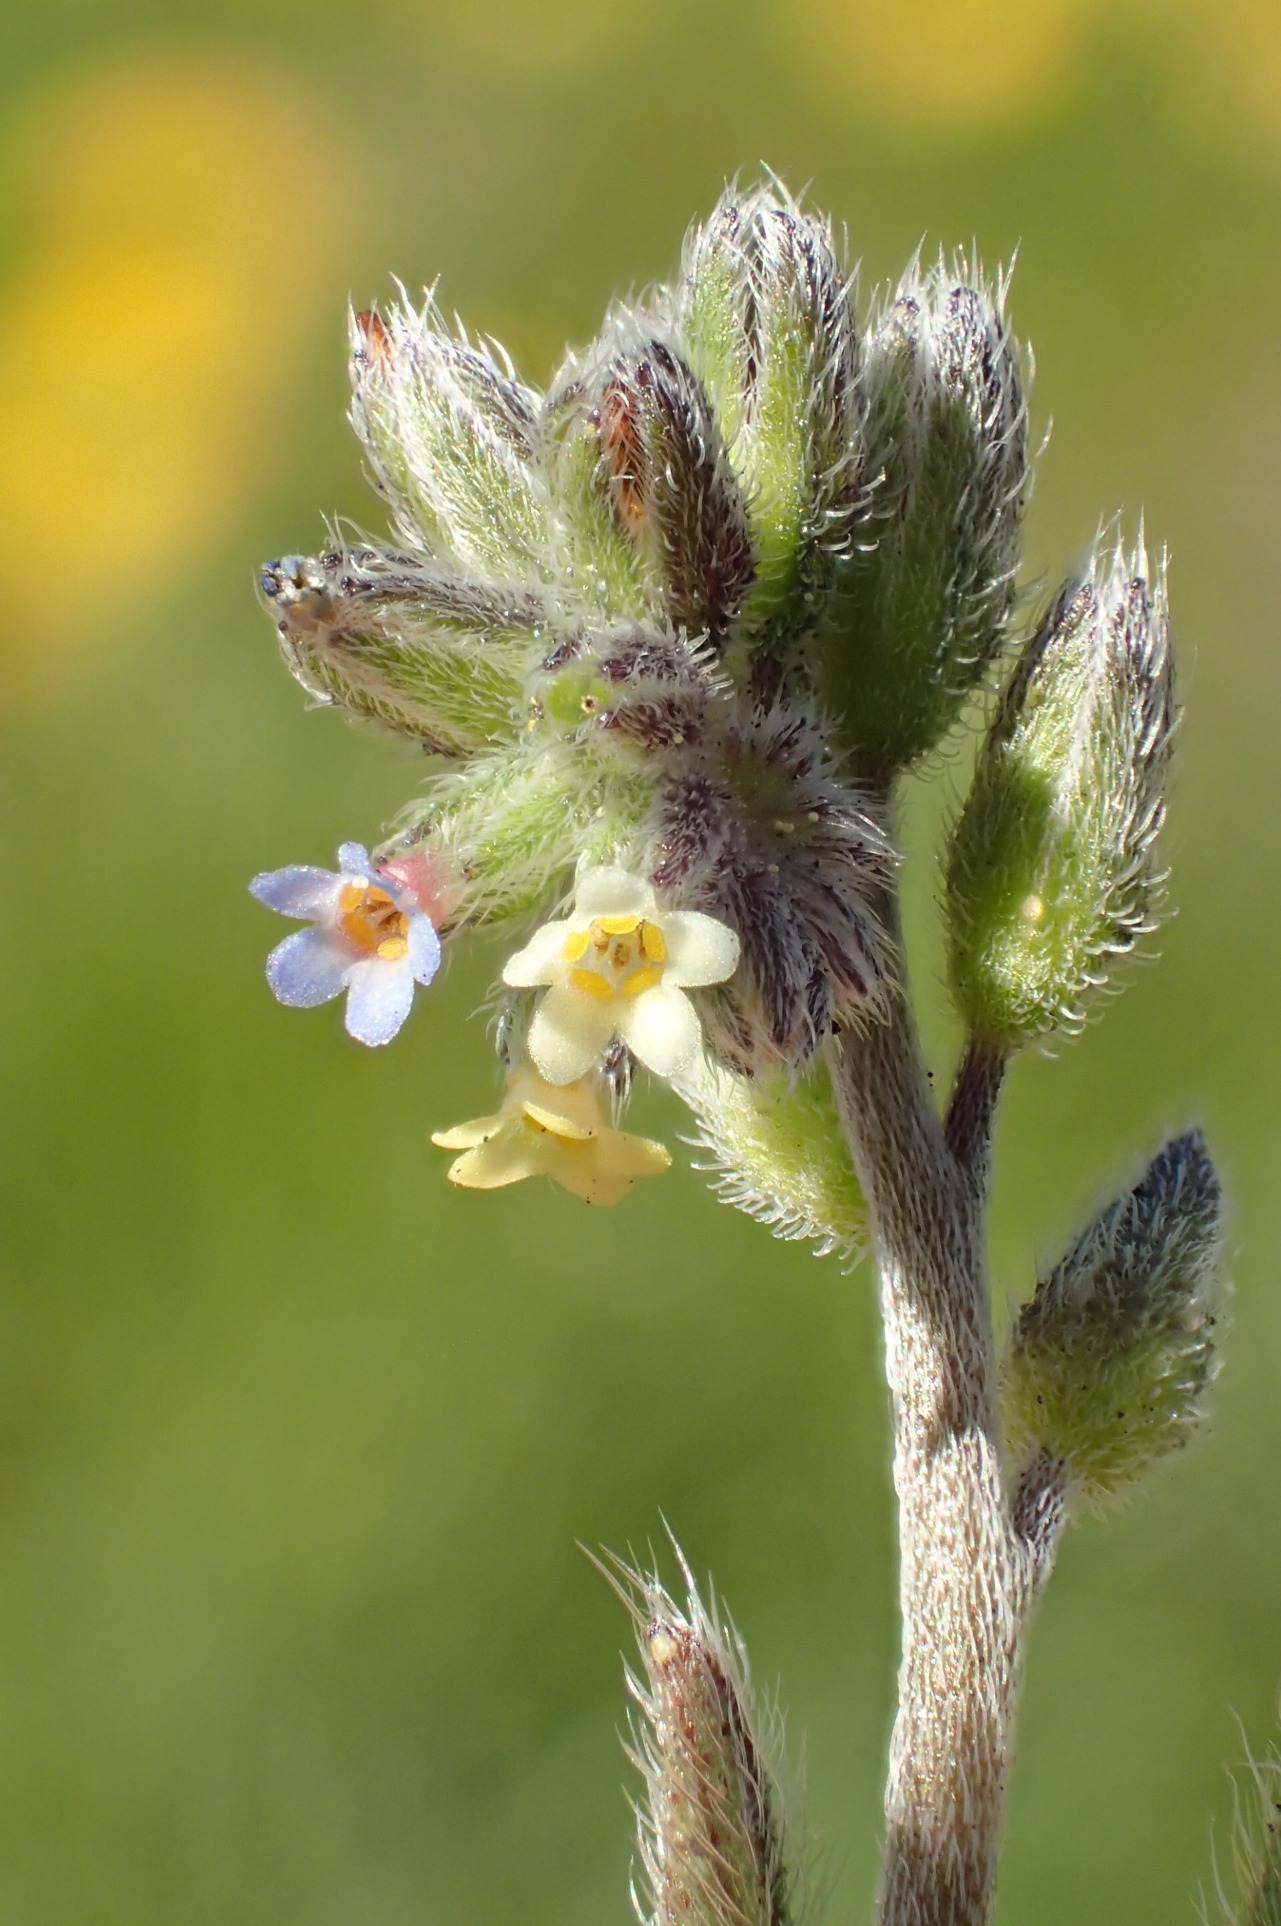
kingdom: Plantae
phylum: Tracheophyta
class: Magnoliopsida
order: Boraginales
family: Boraginaceae
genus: Myosotis
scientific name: Myosotis discolor
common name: Forskelligfarvet forglemmigej
